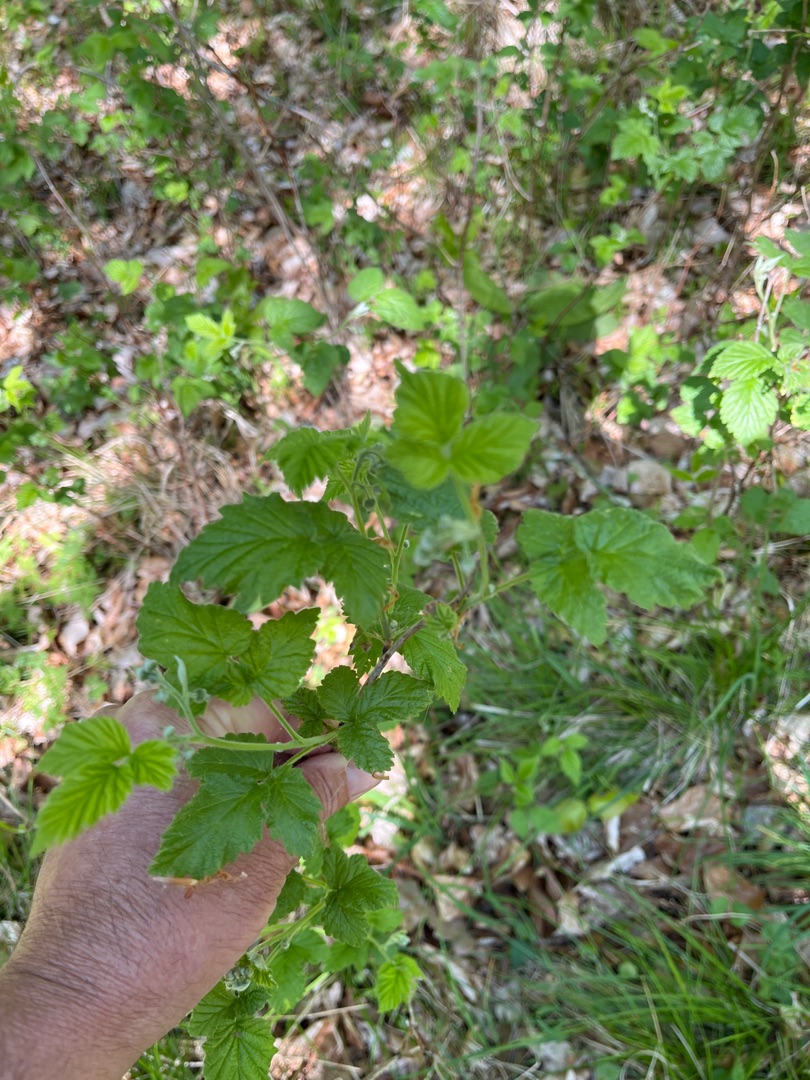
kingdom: Plantae
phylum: Tracheophyta
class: Magnoliopsida
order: Rosales
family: Rosaceae
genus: Rubus
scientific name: Rubus idaeus
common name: Hindbær
